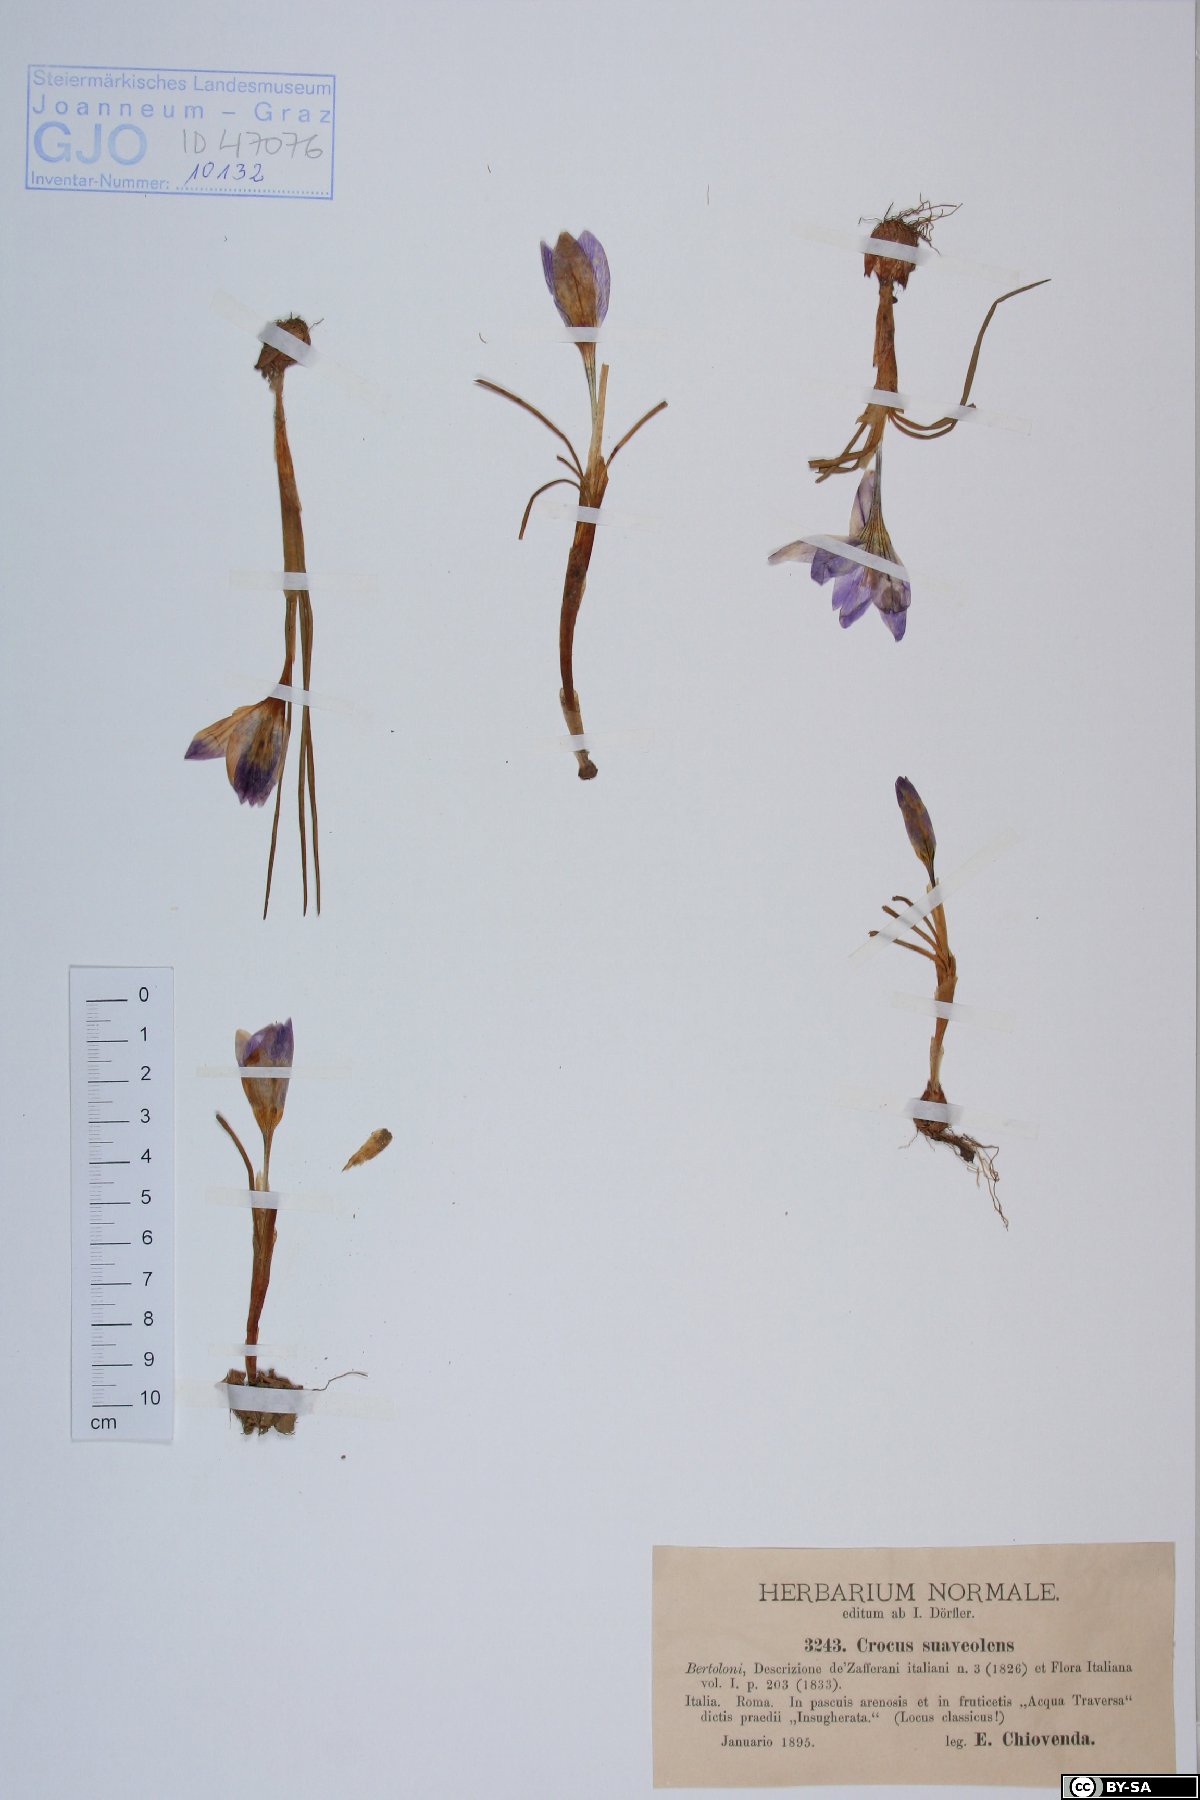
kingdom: Plantae
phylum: Tracheophyta
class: Liliopsida
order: Asparagales
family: Iridaceae
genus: Crocus
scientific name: Crocus suaveolens
